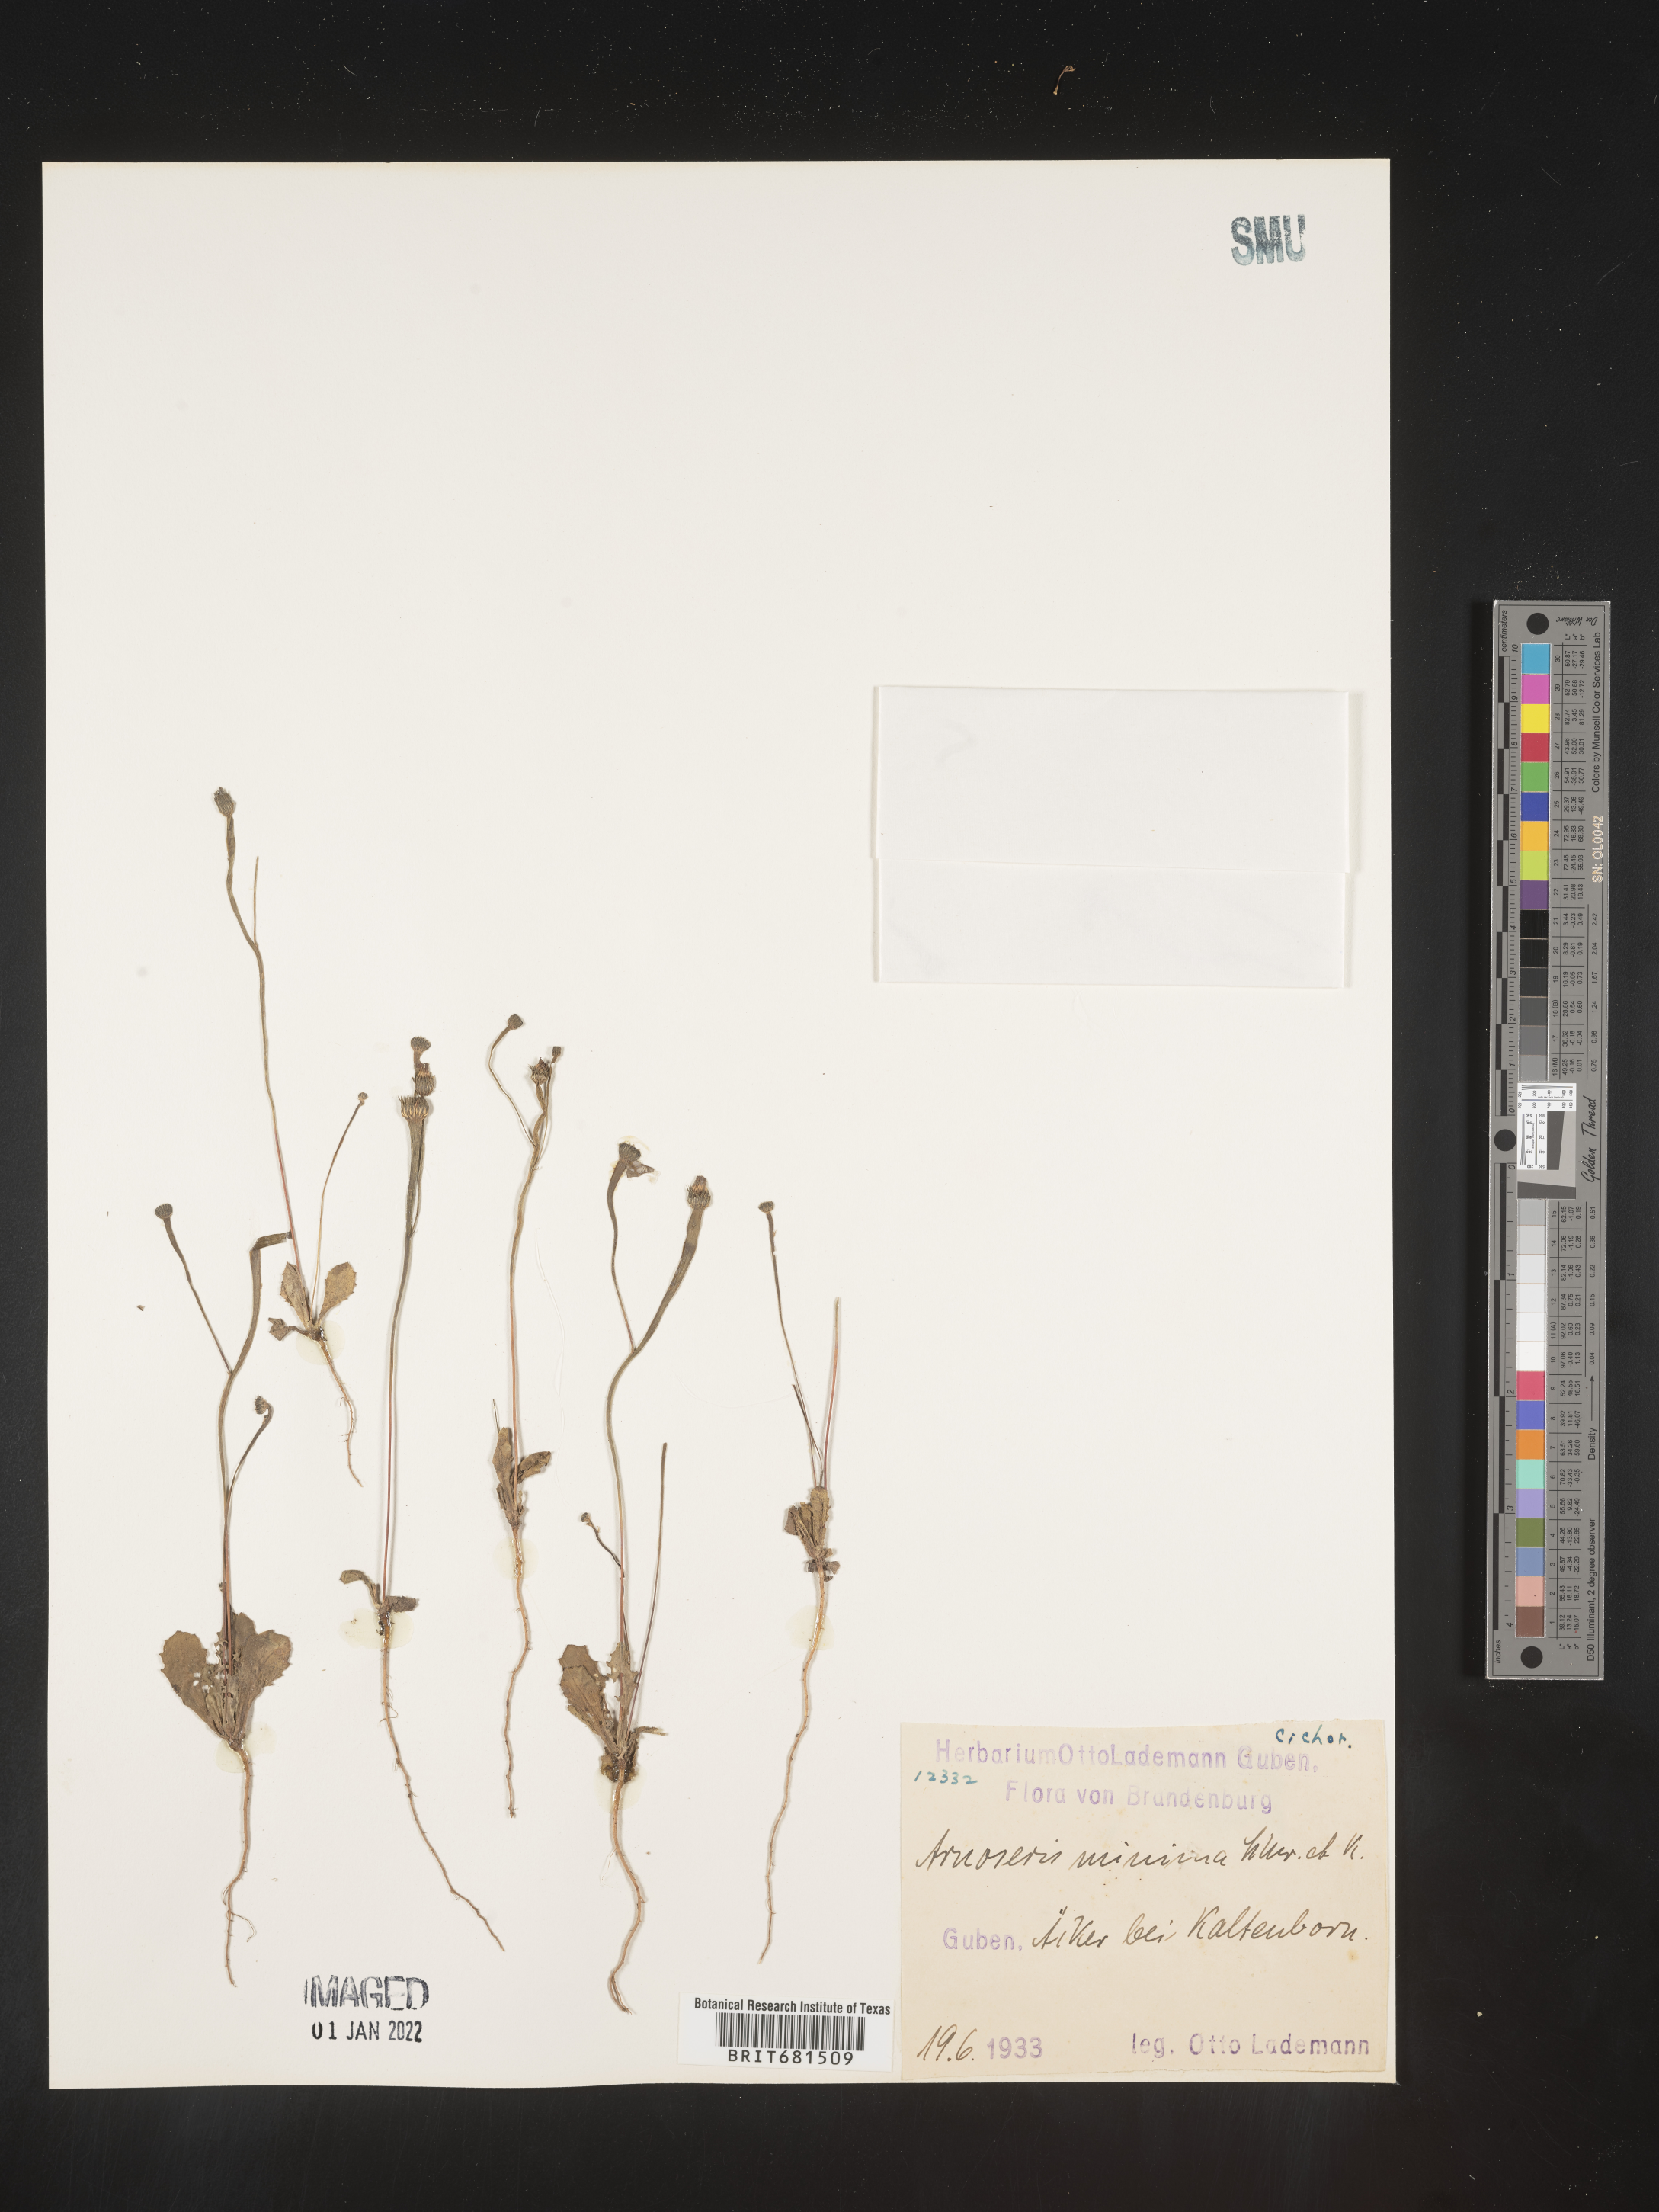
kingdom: Plantae
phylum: Tracheophyta
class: Magnoliopsida
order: Asterales
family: Asteraceae
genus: Arnoseris
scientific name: Arnoseris
